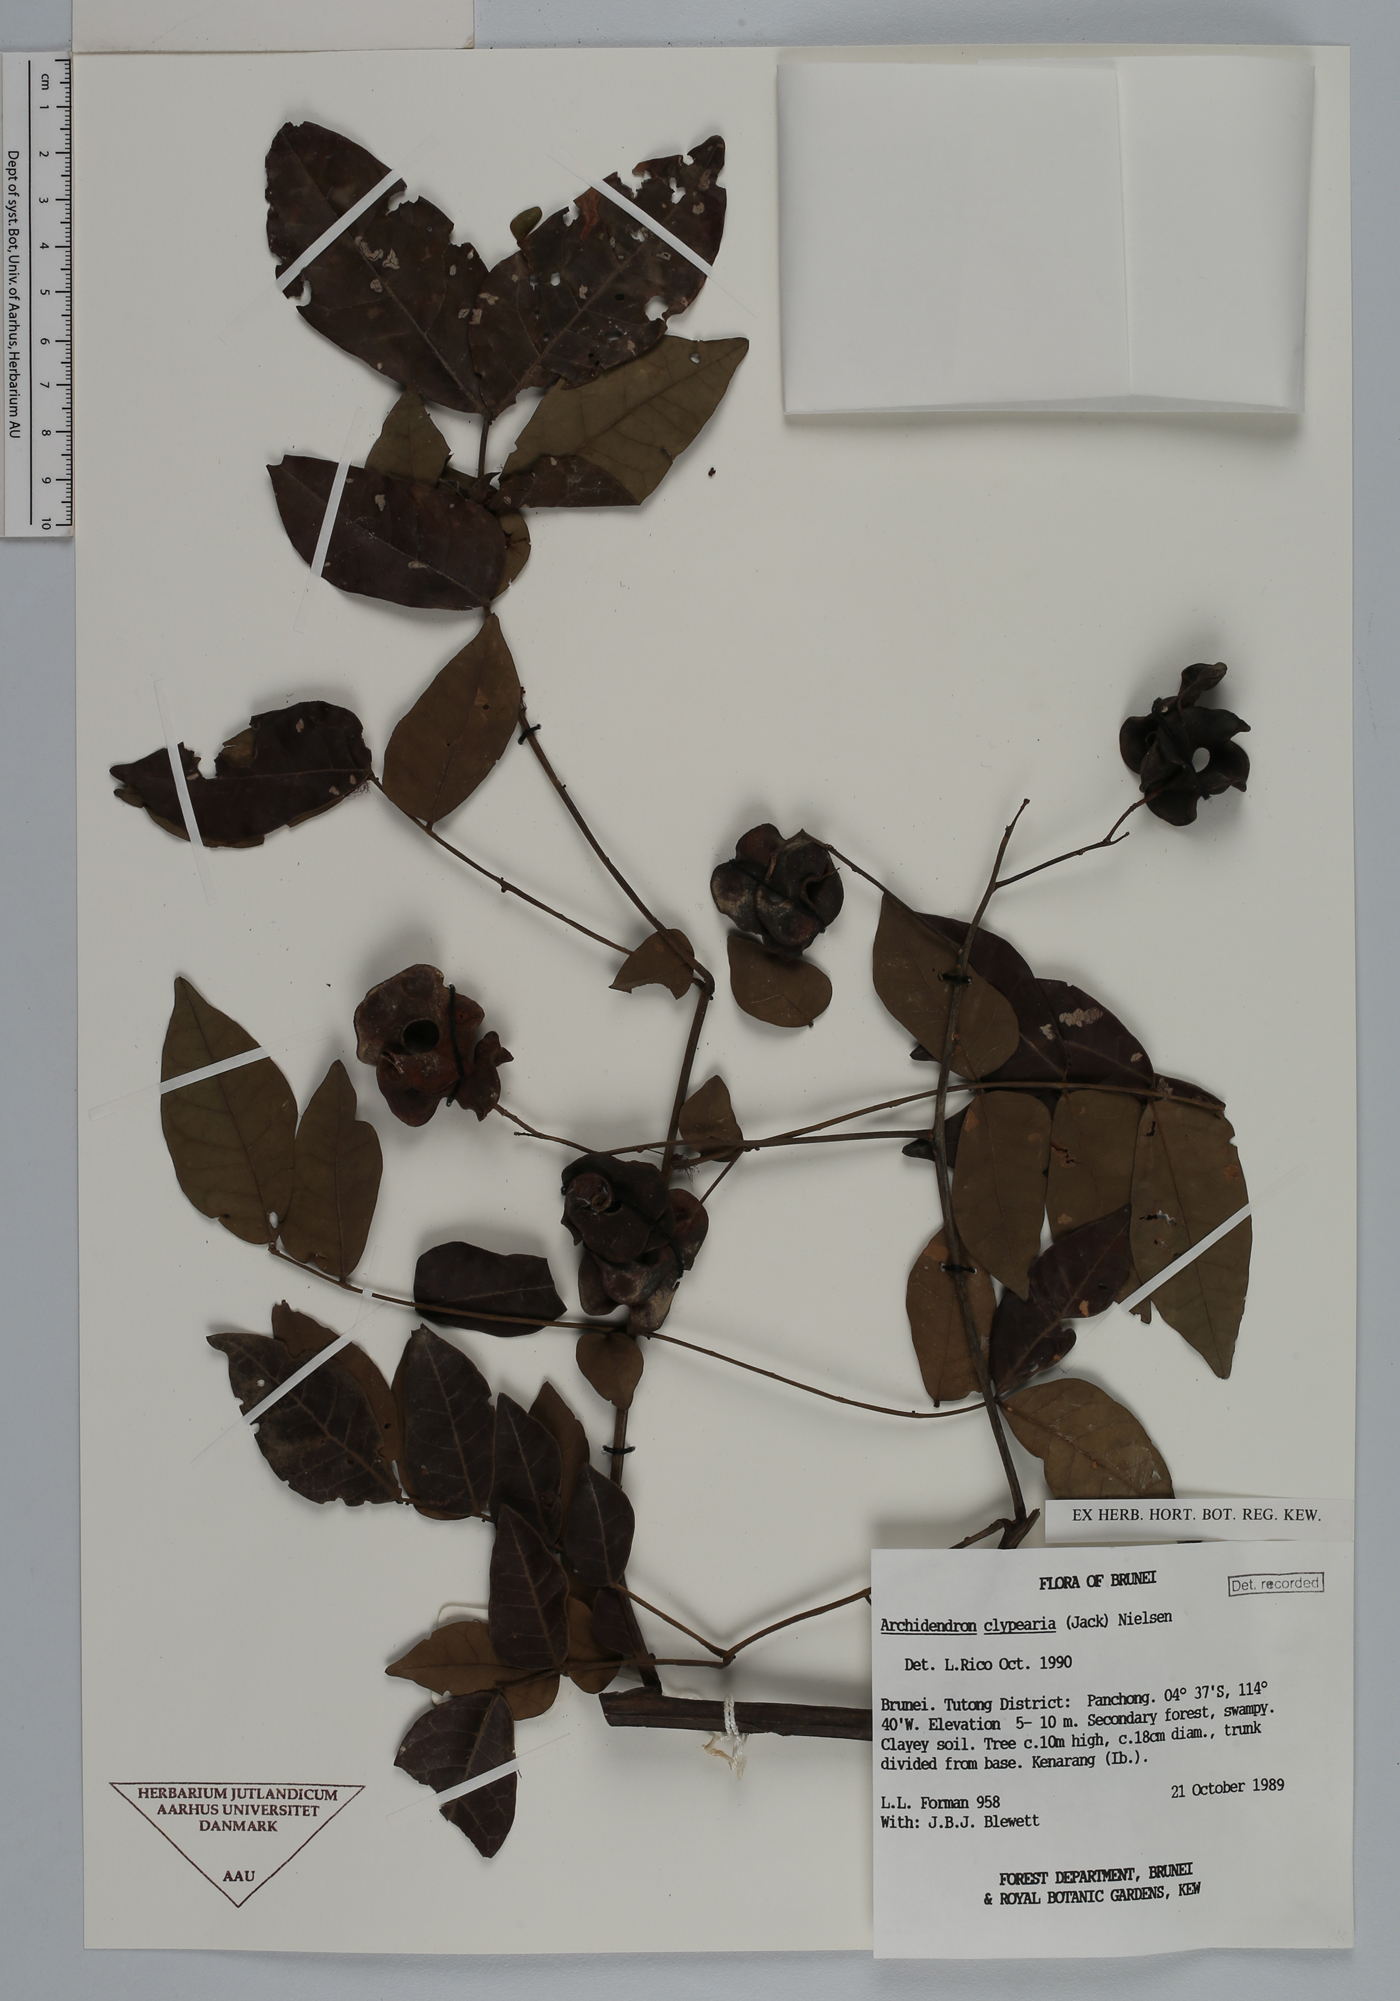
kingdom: Plantae
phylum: Tracheophyta
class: Magnoliopsida
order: Fabales
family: Fabaceae
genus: Archidendron
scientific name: Archidendron microcarpum
